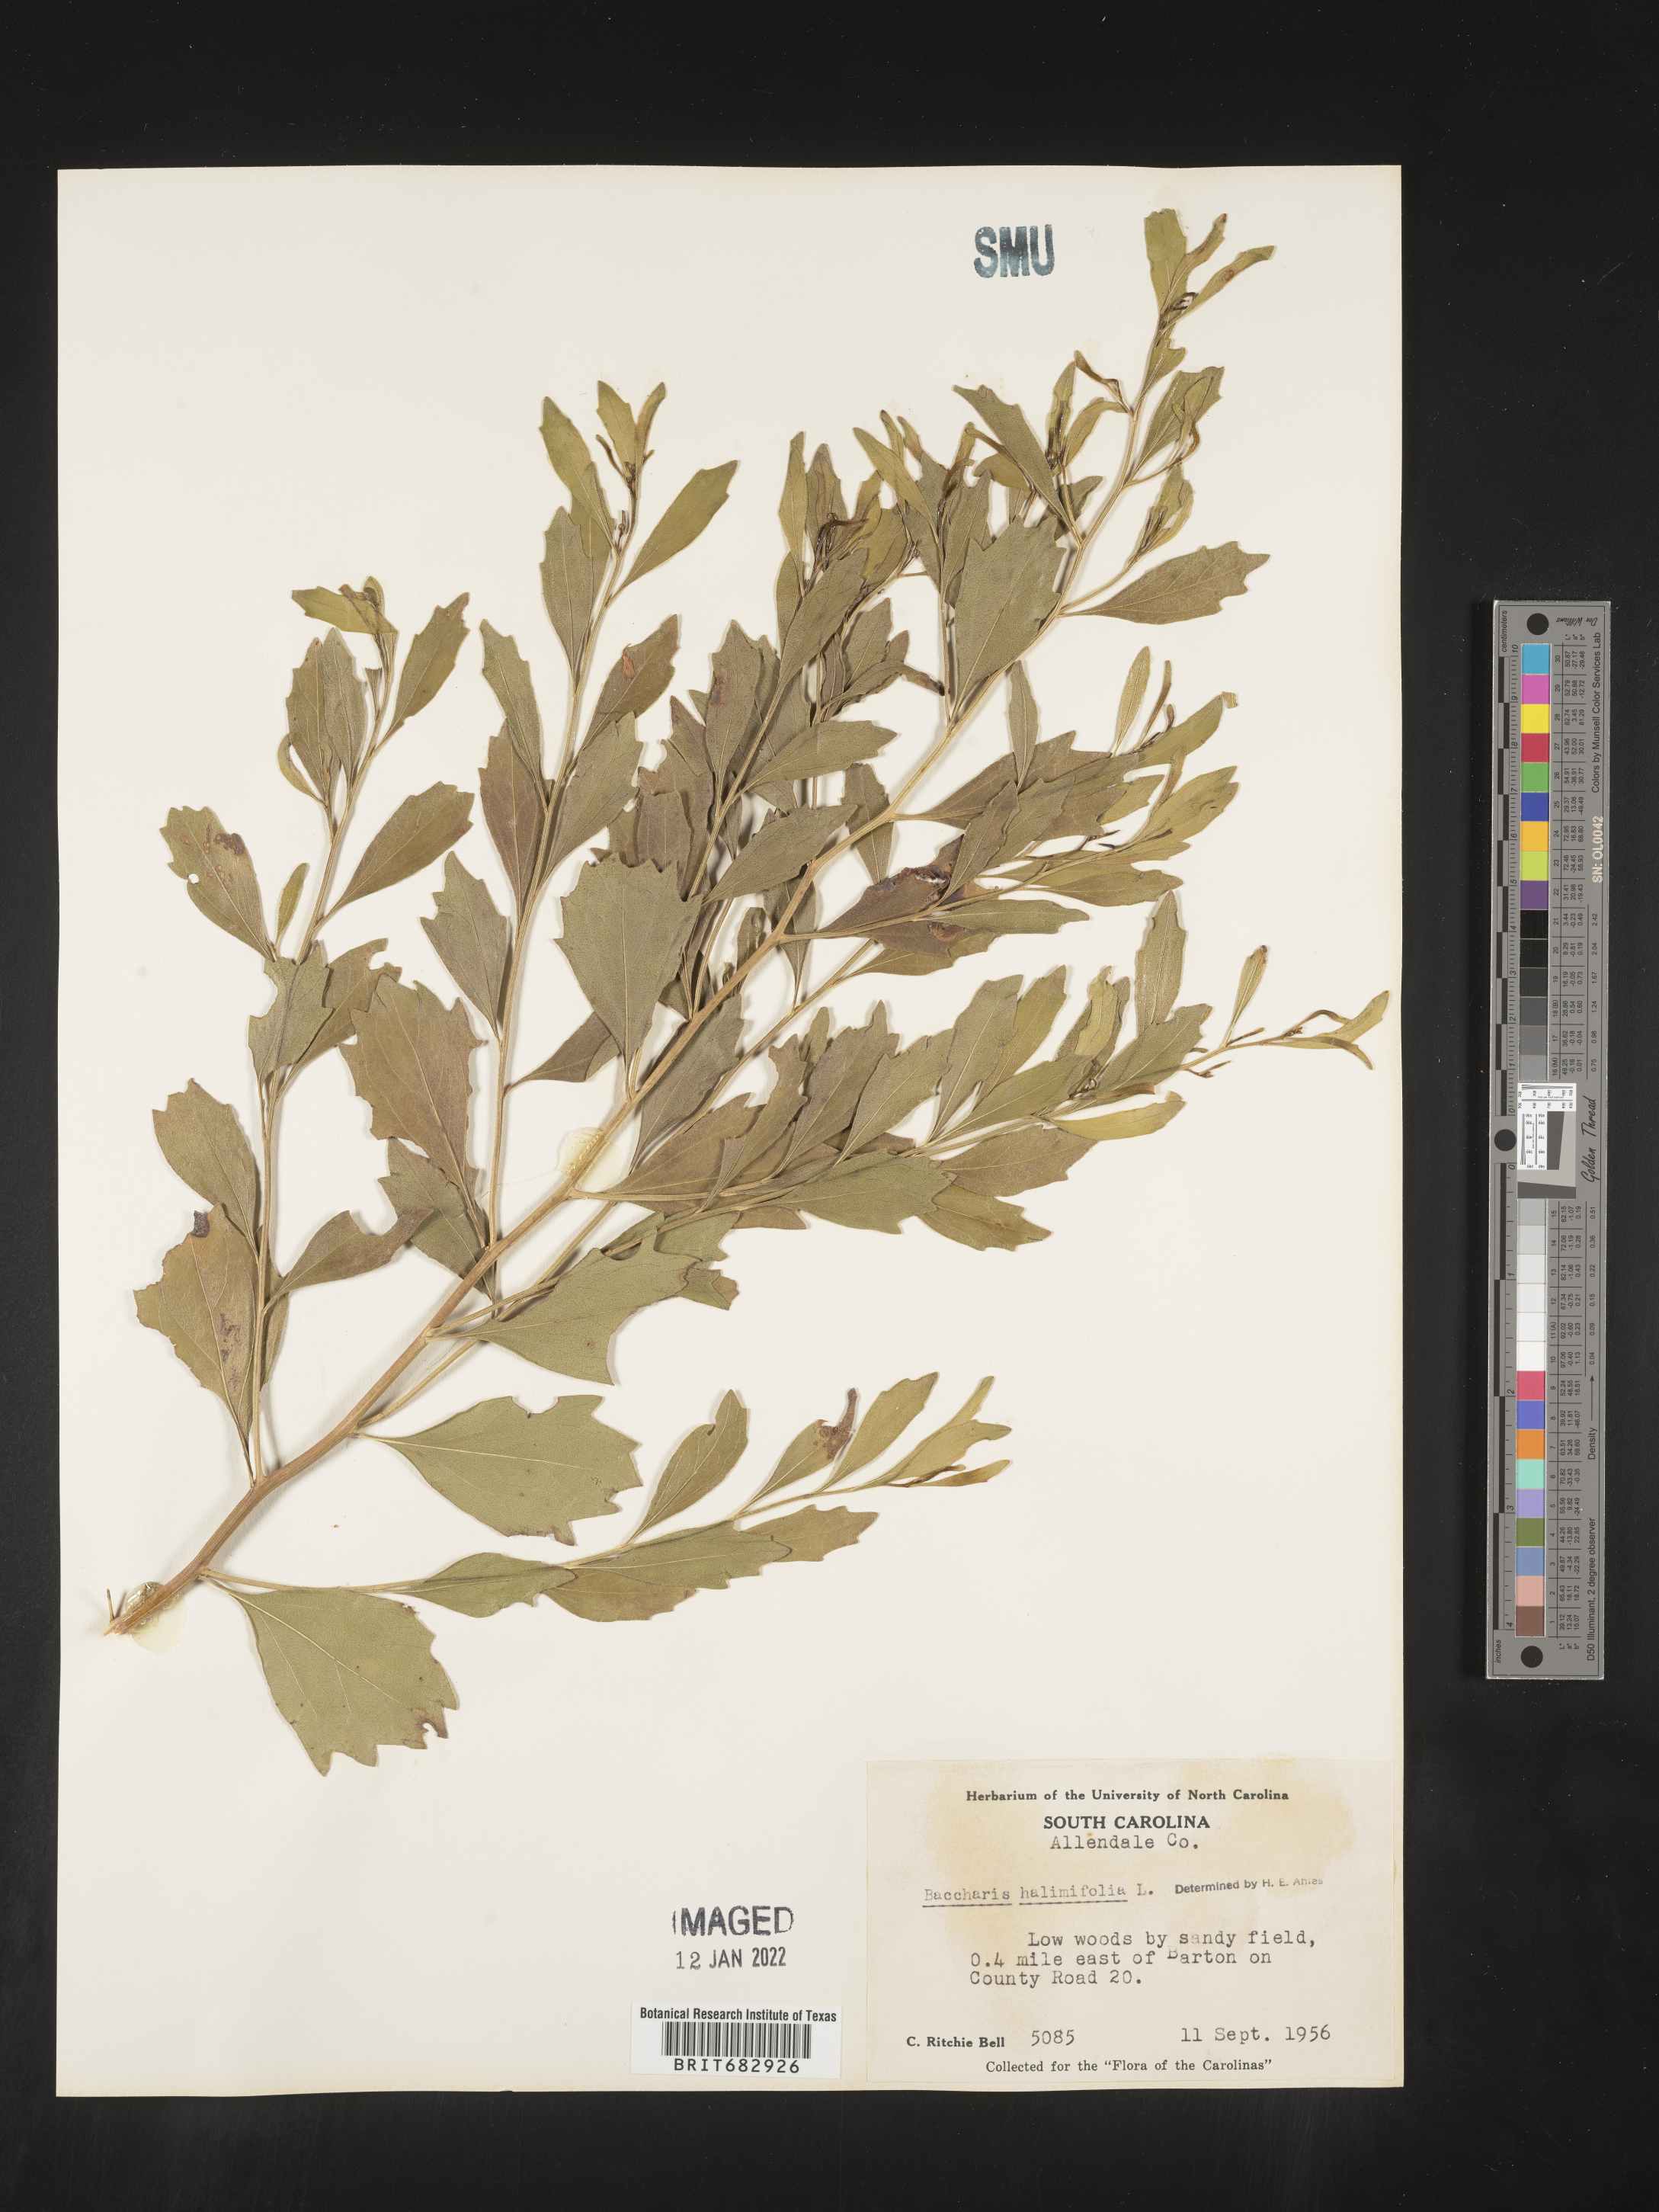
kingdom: Plantae
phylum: Tracheophyta
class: Magnoliopsida
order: Asterales
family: Asteraceae
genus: Nidorella
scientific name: Nidorella ivifolia
